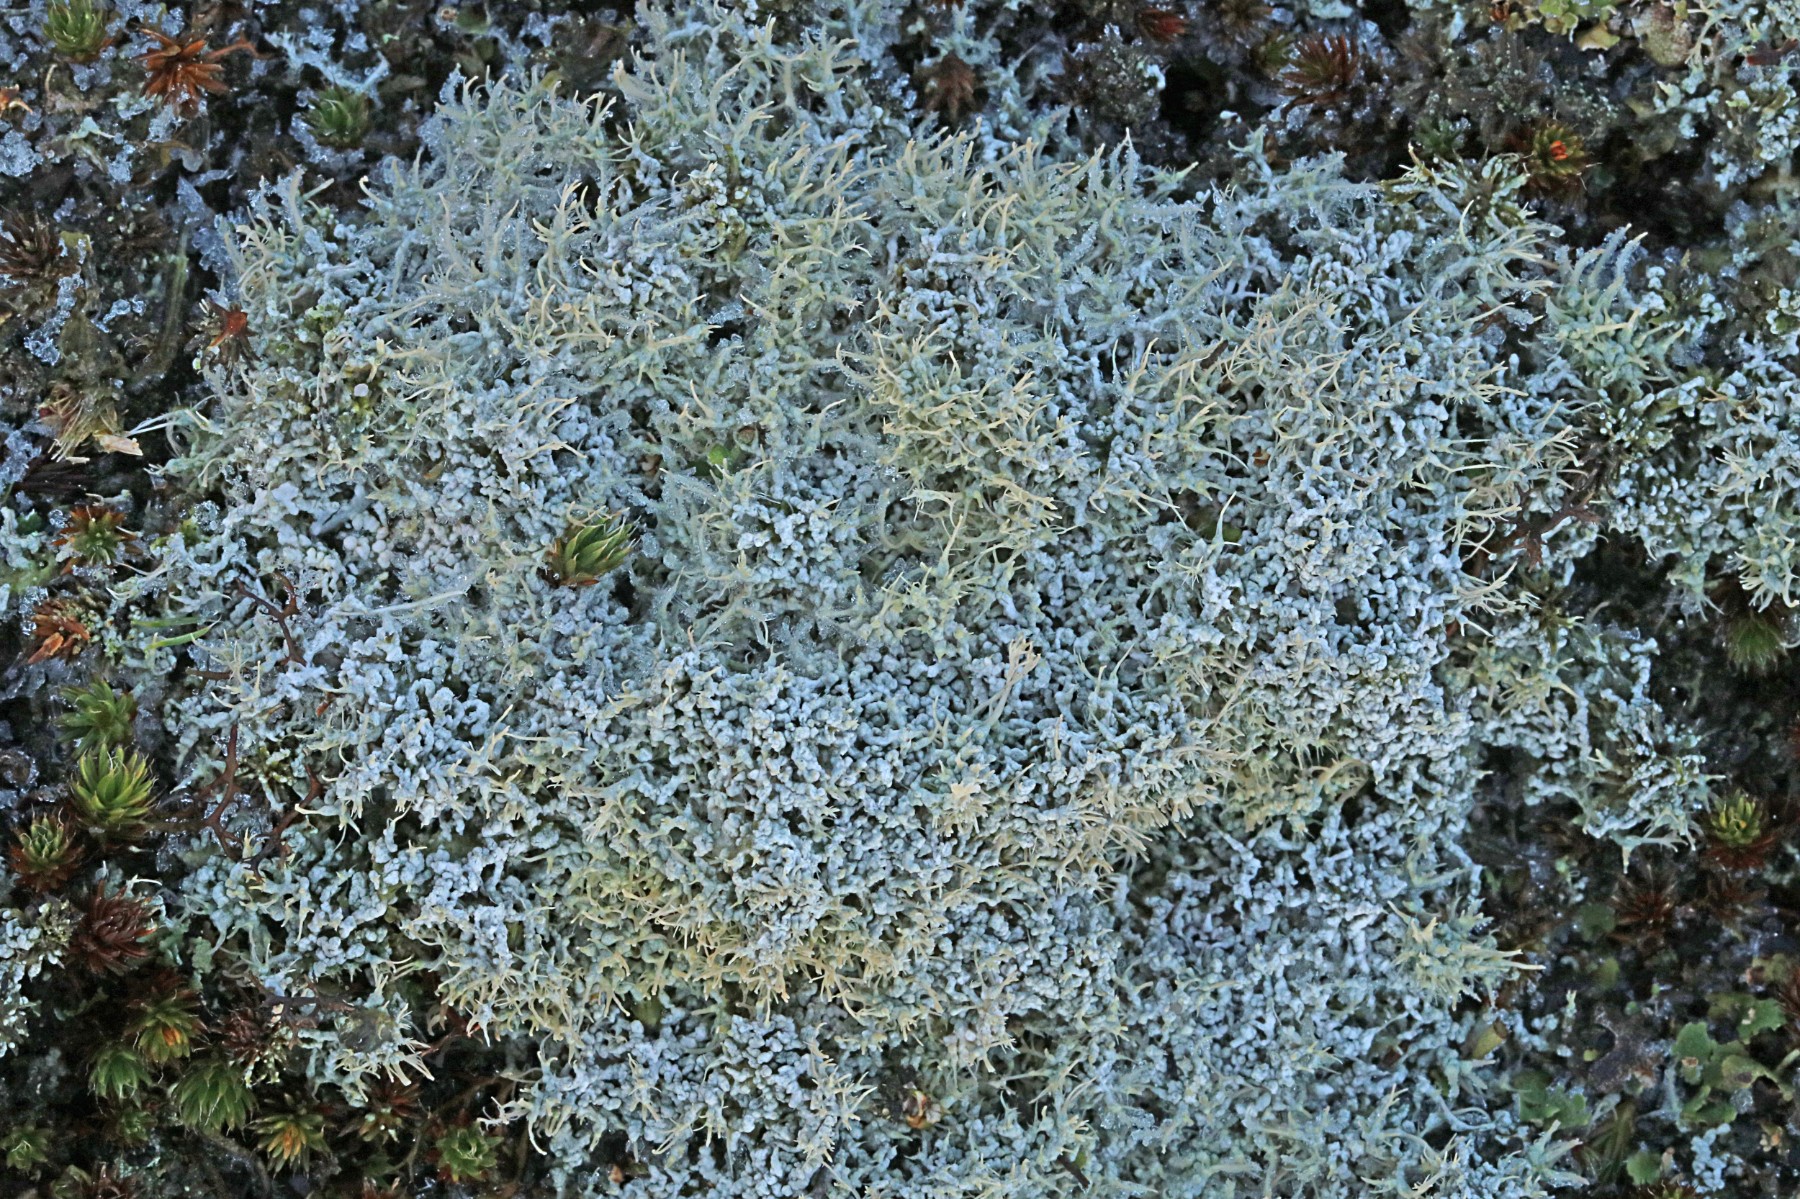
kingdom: Fungi
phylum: Ascomycota
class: Lecanoromycetes
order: Pertusariales
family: Ochrolechiaceae
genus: Ochrolechia
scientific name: Ochrolechia frigida
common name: fjeld-blegskivelav
